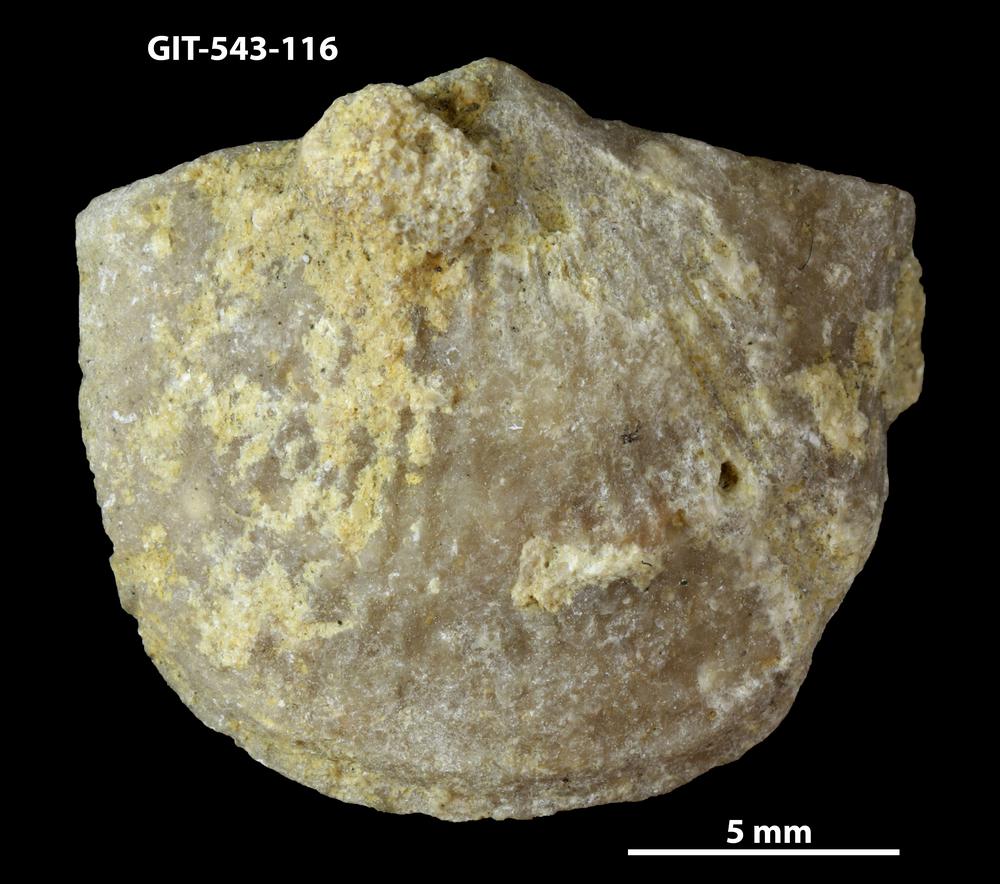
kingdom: Animalia
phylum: Brachiopoda
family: Gonambonitidae
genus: Estlandia
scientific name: Estlandia Orthisina marginata
